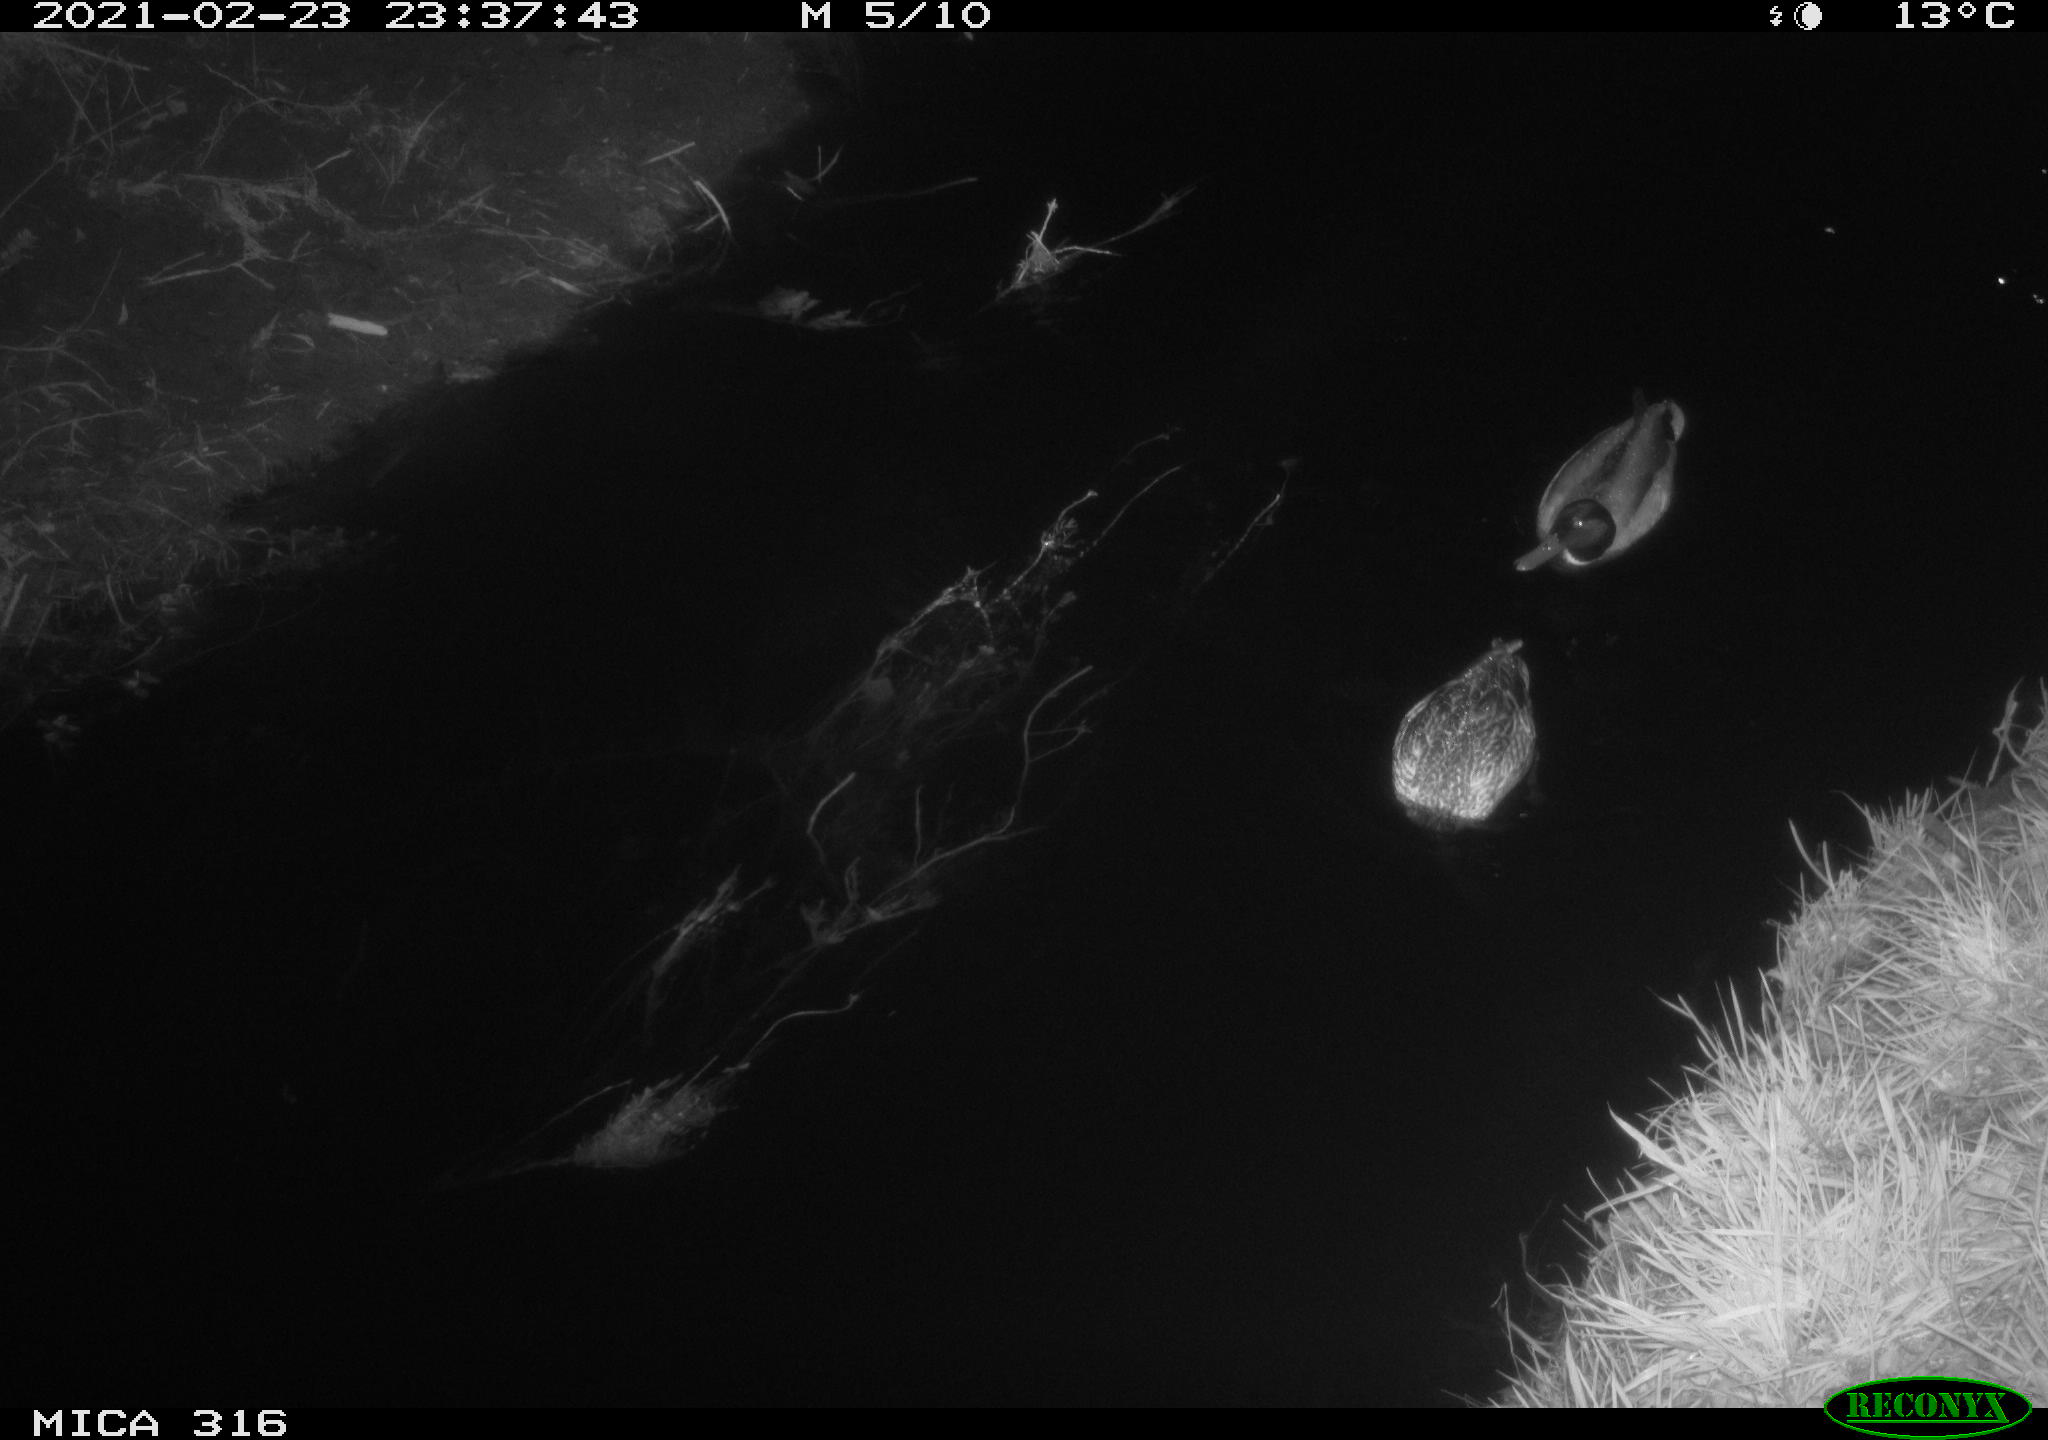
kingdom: Animalia
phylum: Chordata
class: Aves
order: Anseriformes
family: Anatidae
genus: Anas
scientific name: Anas platyrhynchos
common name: Mallard
